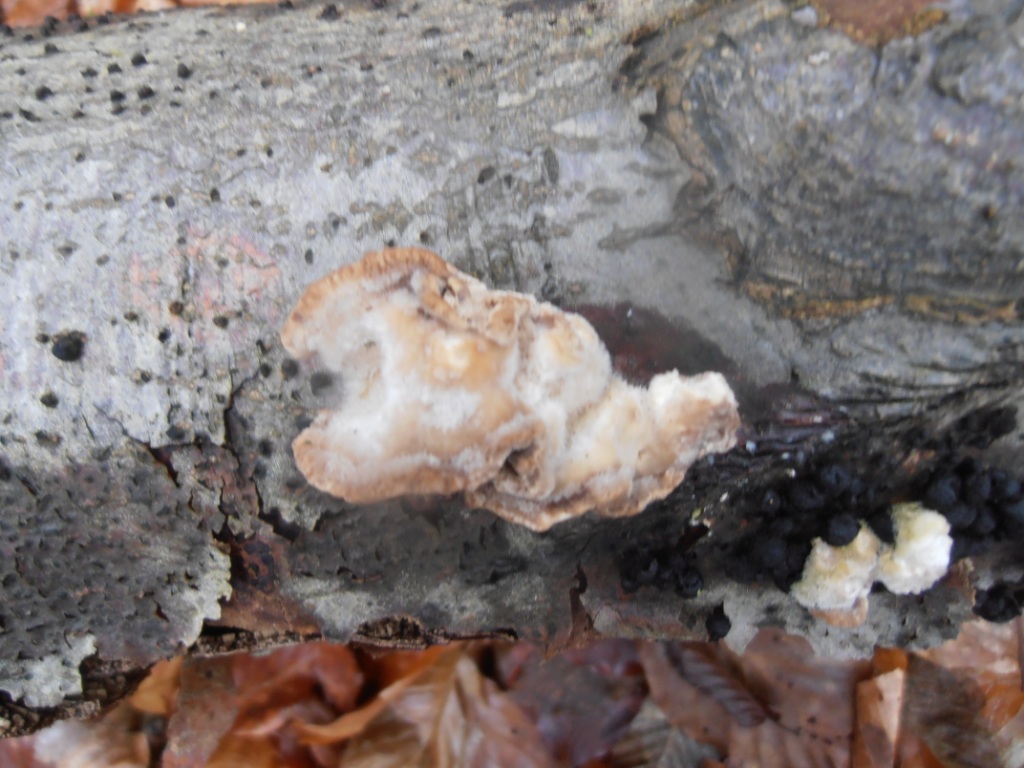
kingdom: Fungi
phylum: Basidiomycota
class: Agaricomycetes
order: Polyporales
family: Polyporaceae
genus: Trametes
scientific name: Trametes hirsuta
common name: håret læderporesvamp
